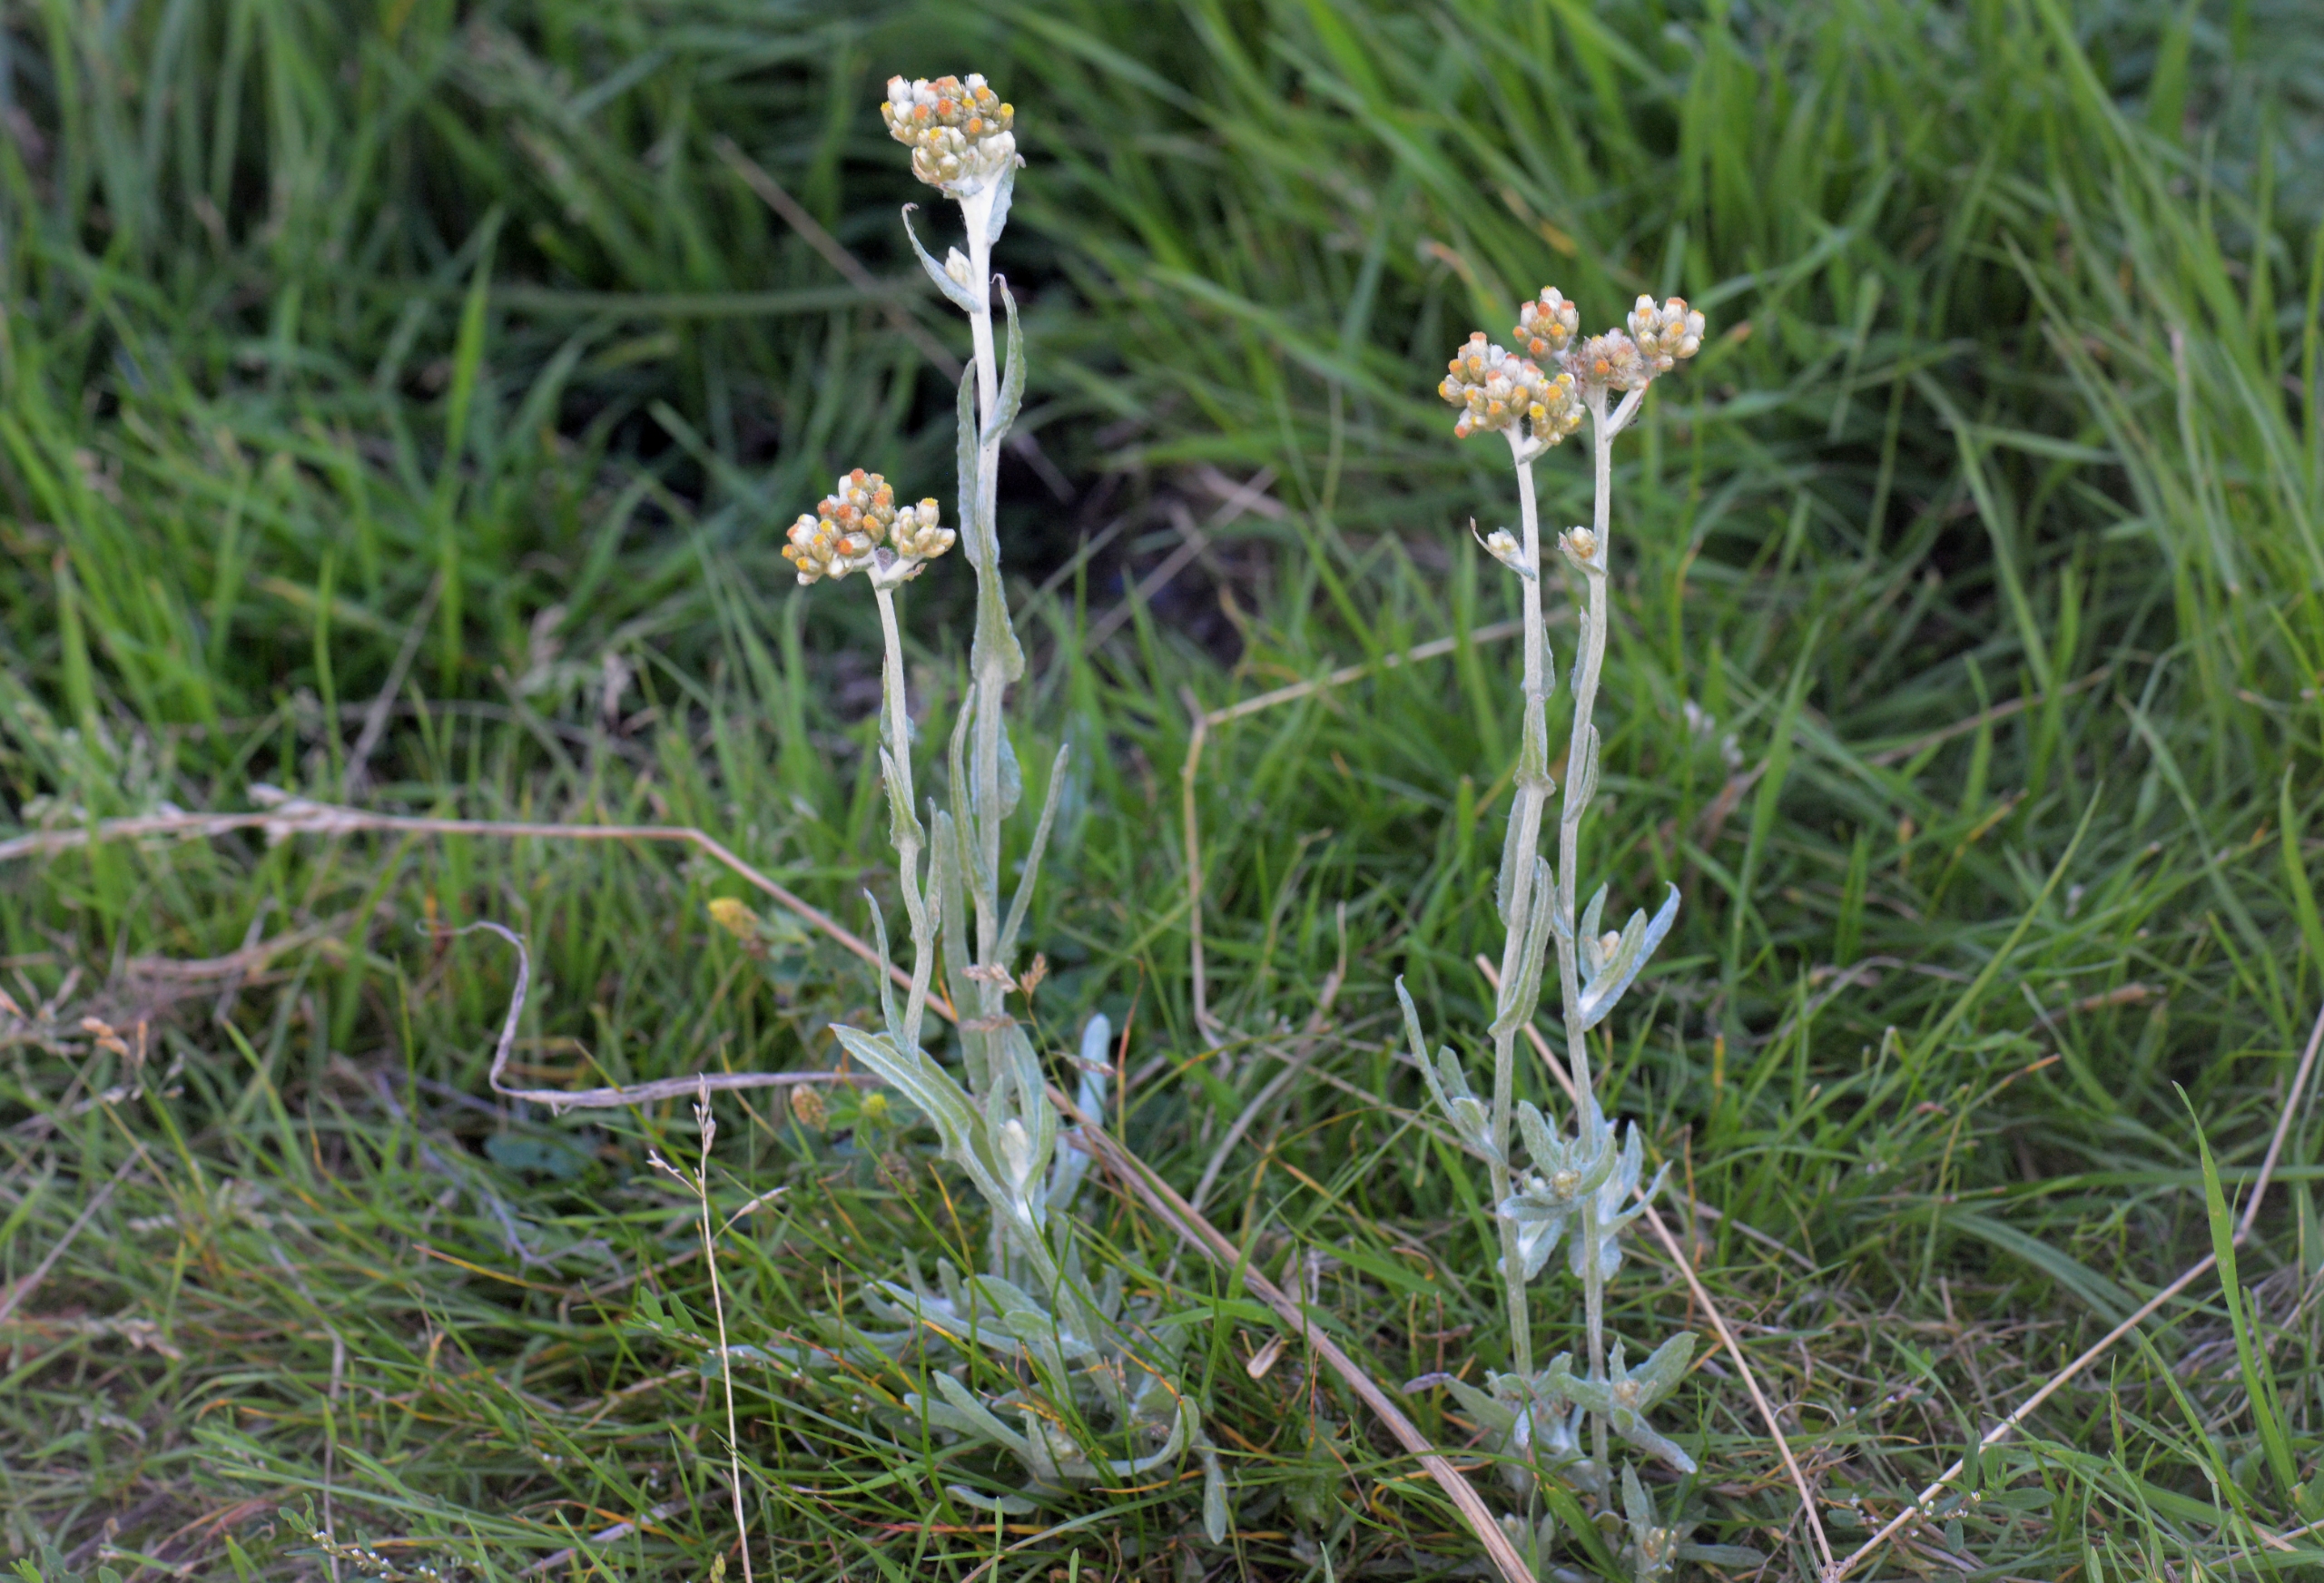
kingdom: Plantae
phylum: Tracheophyta
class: Magnoliopsida
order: Asterales
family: Asteraceae
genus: Helichrysum
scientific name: Helichrysum luteoalbum
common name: Gulhvid evighedsblomst
